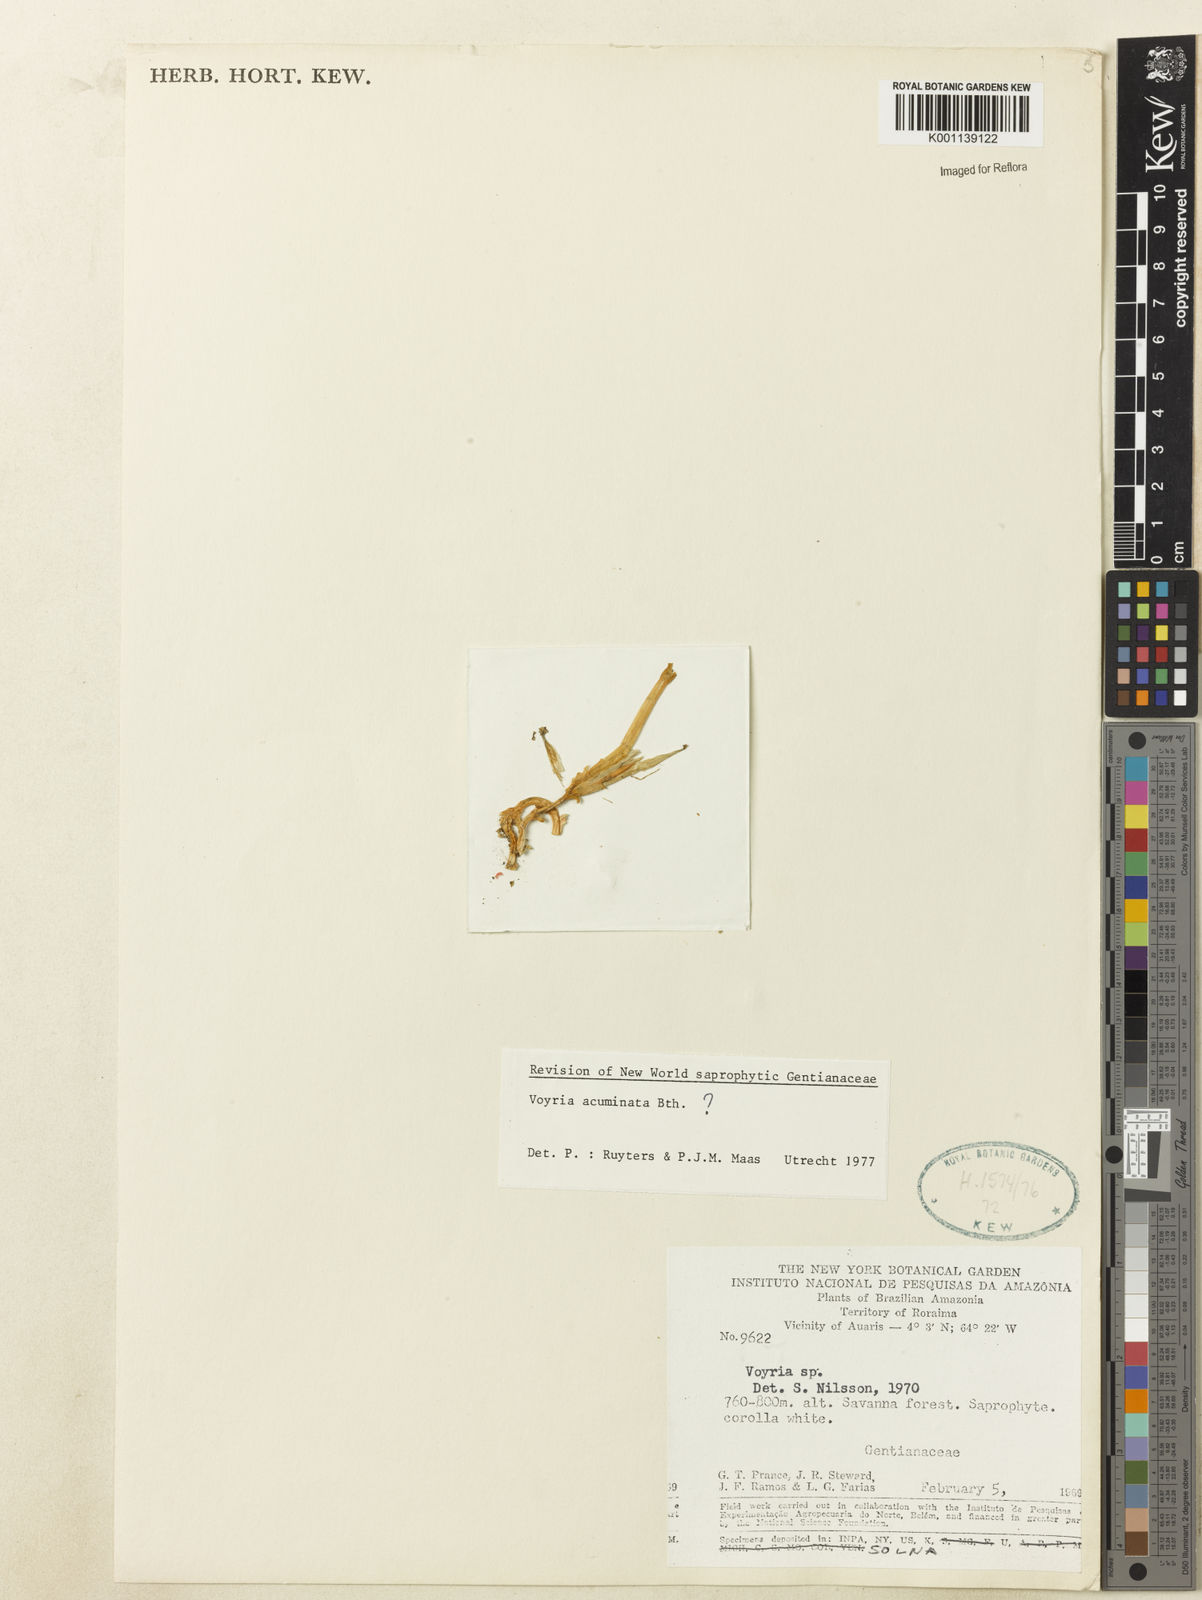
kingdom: Plantae
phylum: Tracheophyta
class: Magnoliopsida
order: Gentianales
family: Gentianaceae
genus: Voyria
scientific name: Voyria acuminata
